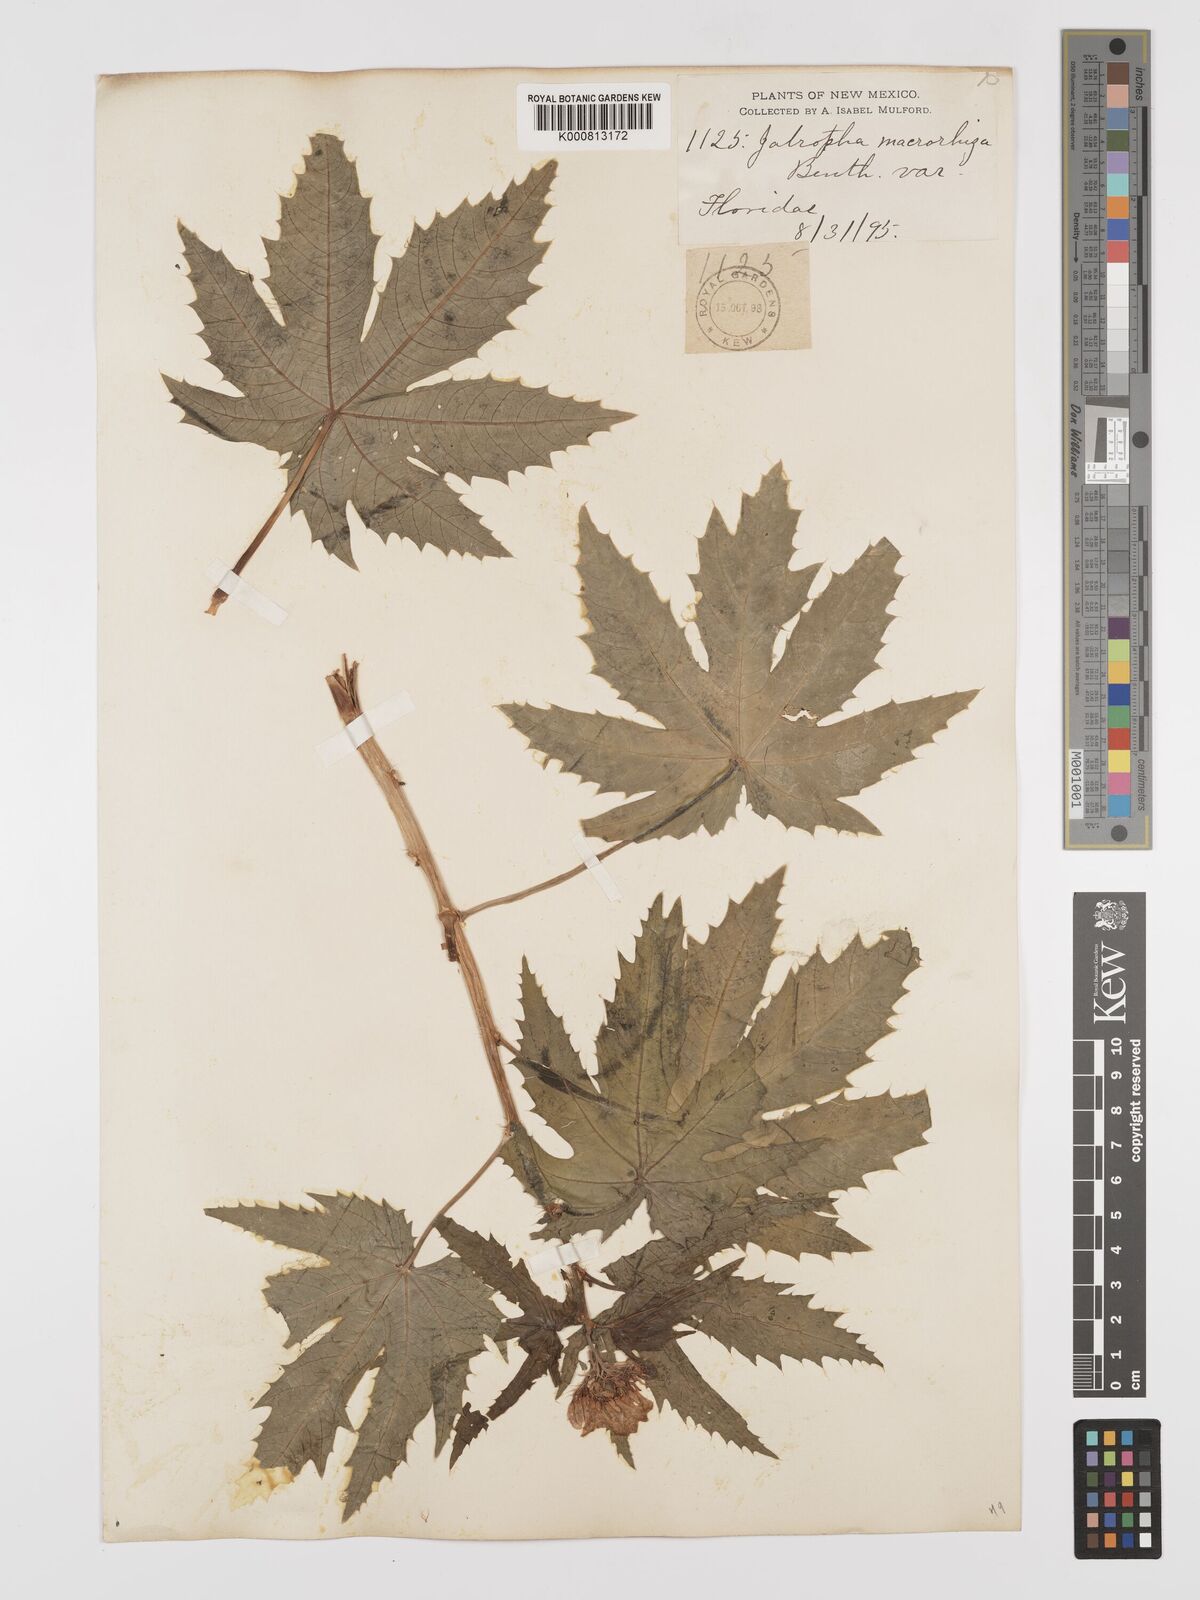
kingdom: Plantae
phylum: Tracheophyta
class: Magnoliopsida
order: Malpighiales
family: Euphorbiaceae
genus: Jatropha
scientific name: Jatropha macrorhiza
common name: Ragged nettlespurge
